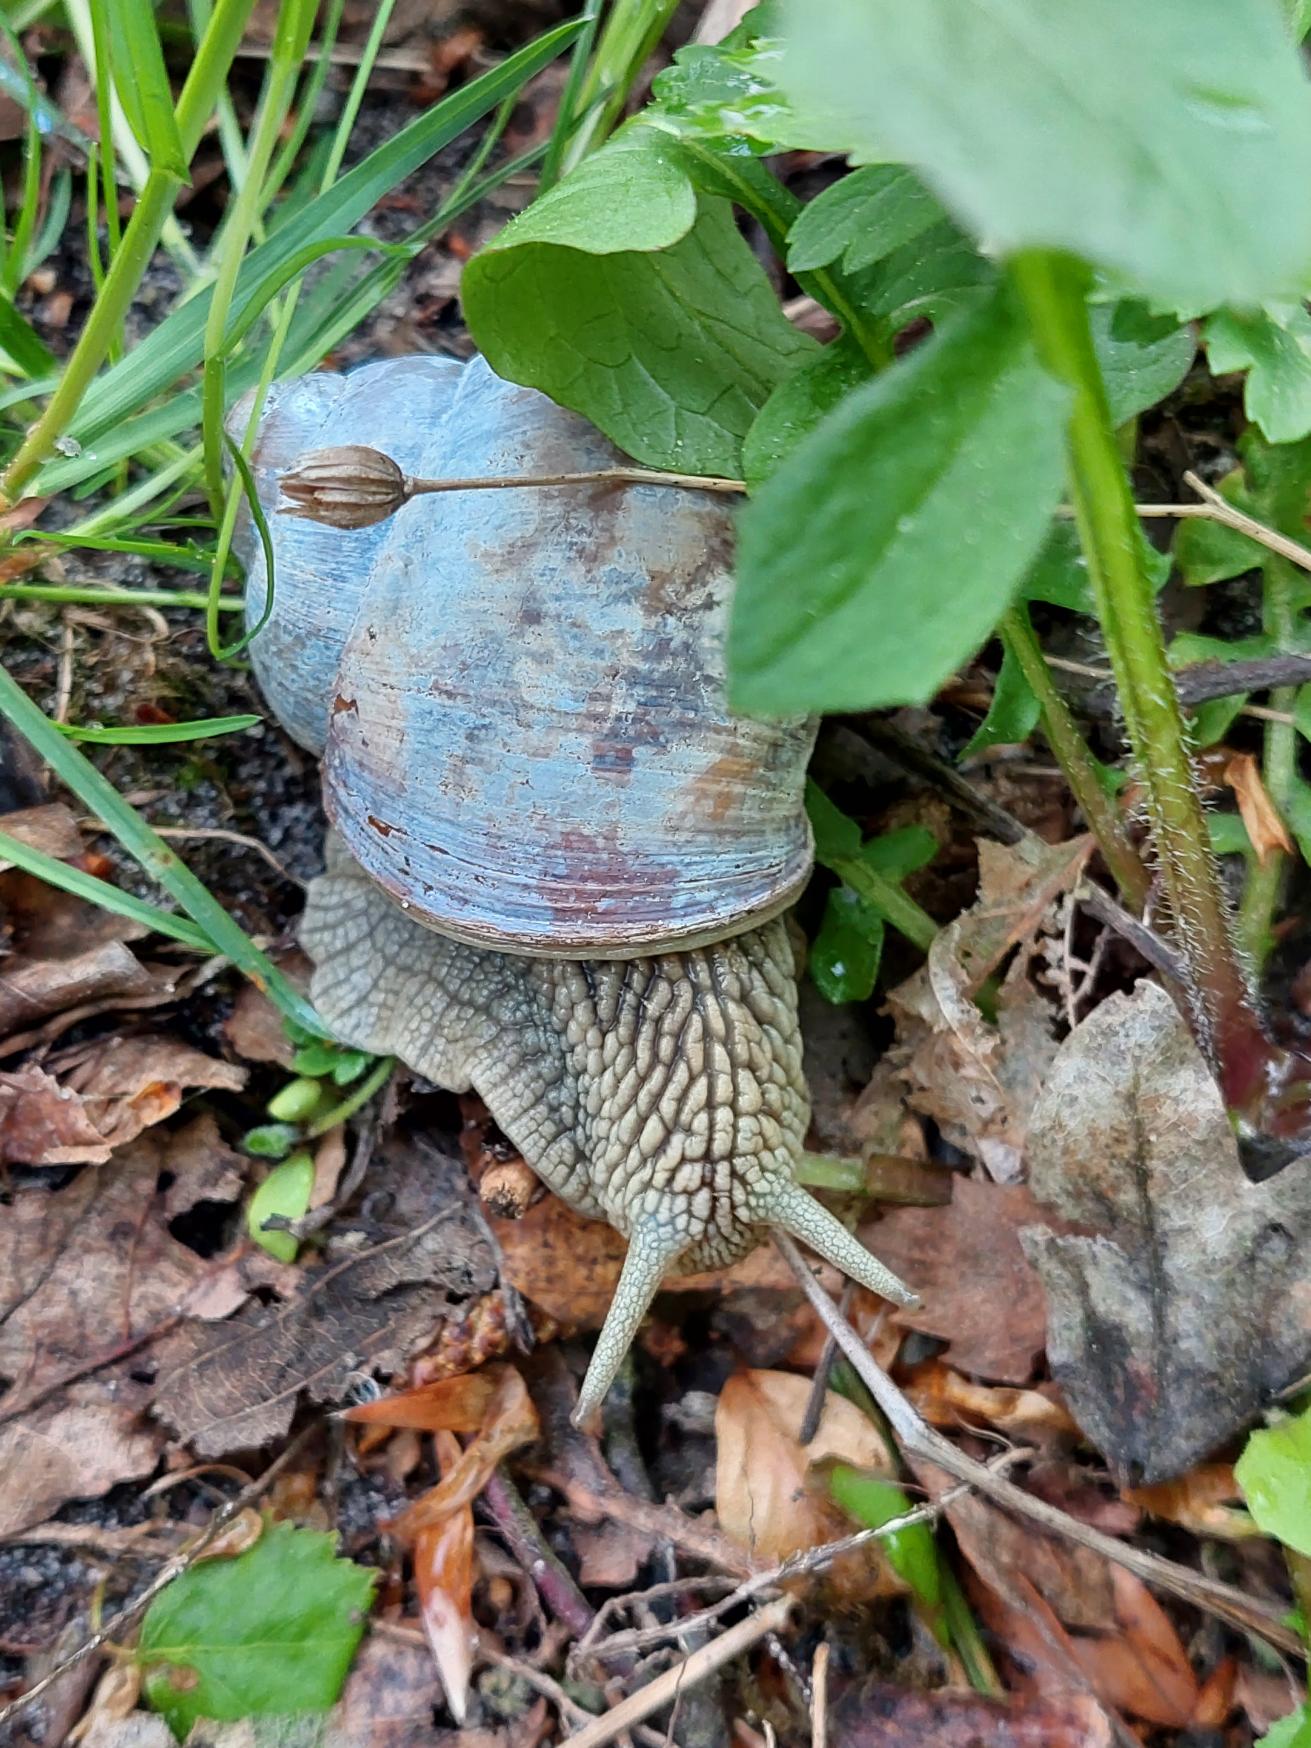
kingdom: Animalia
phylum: Mollusca
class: Gastropoda
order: Stylommatophora
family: Helicidae
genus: Helix
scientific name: Helix pomatia
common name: Vinbjergsnegl
